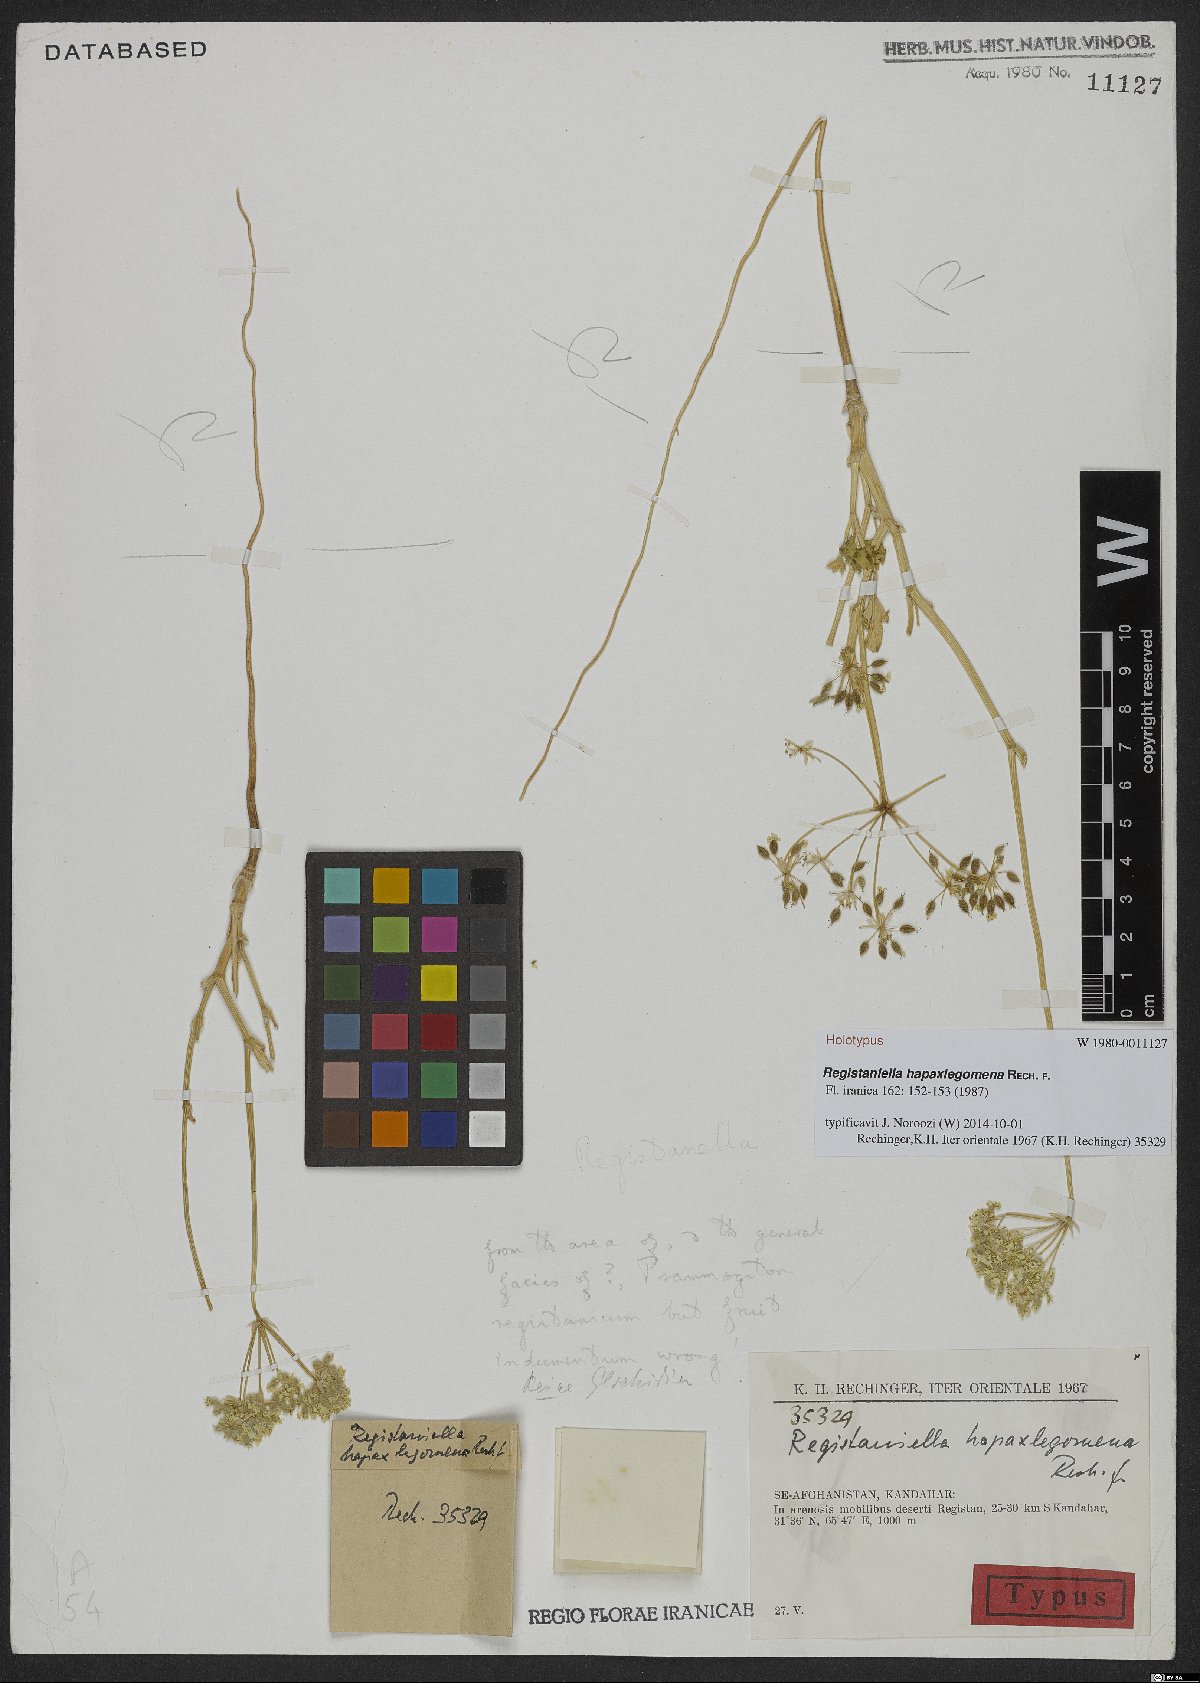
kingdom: Plantae
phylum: Tracheophyta
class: Magnoliopsida
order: Apiales
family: Apiaceae
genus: Registaniella
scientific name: Registaniella hapaxlegomena
